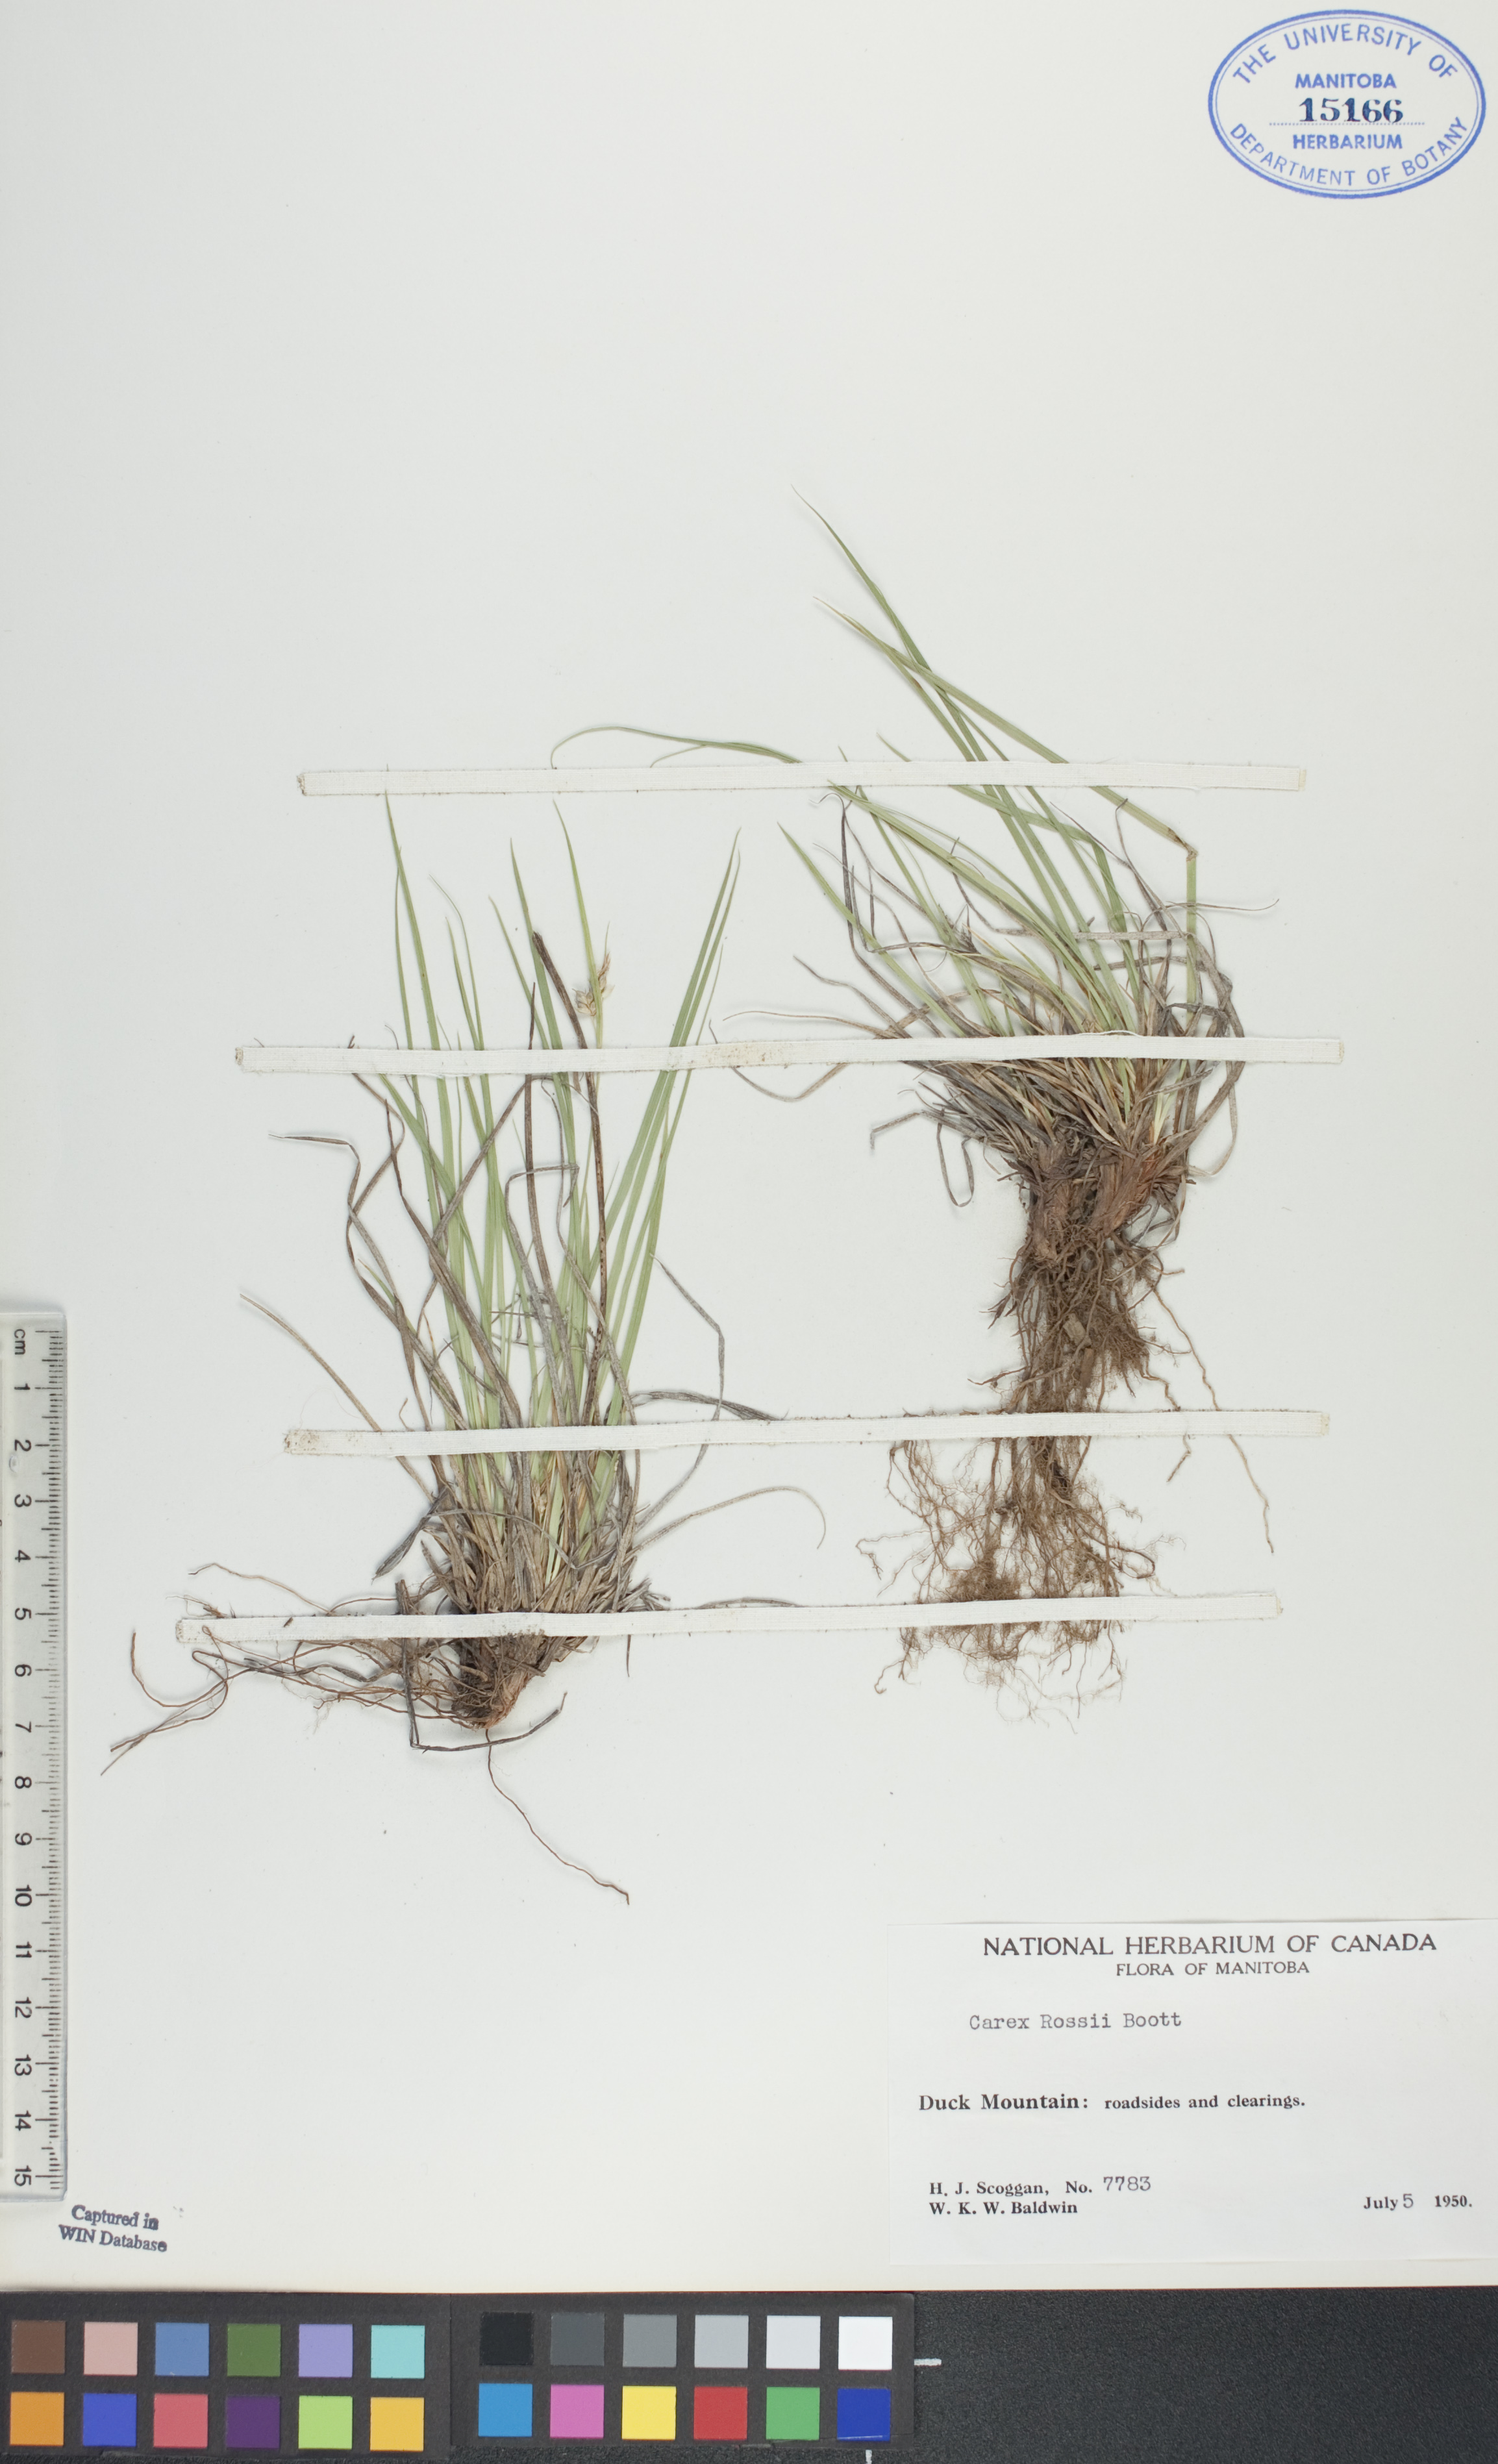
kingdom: Plantae
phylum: Tracheophyta
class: Liliopsida
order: Poales
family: Cyperaceae
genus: Carex
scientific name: Carex rossii
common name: Ross' sedge
